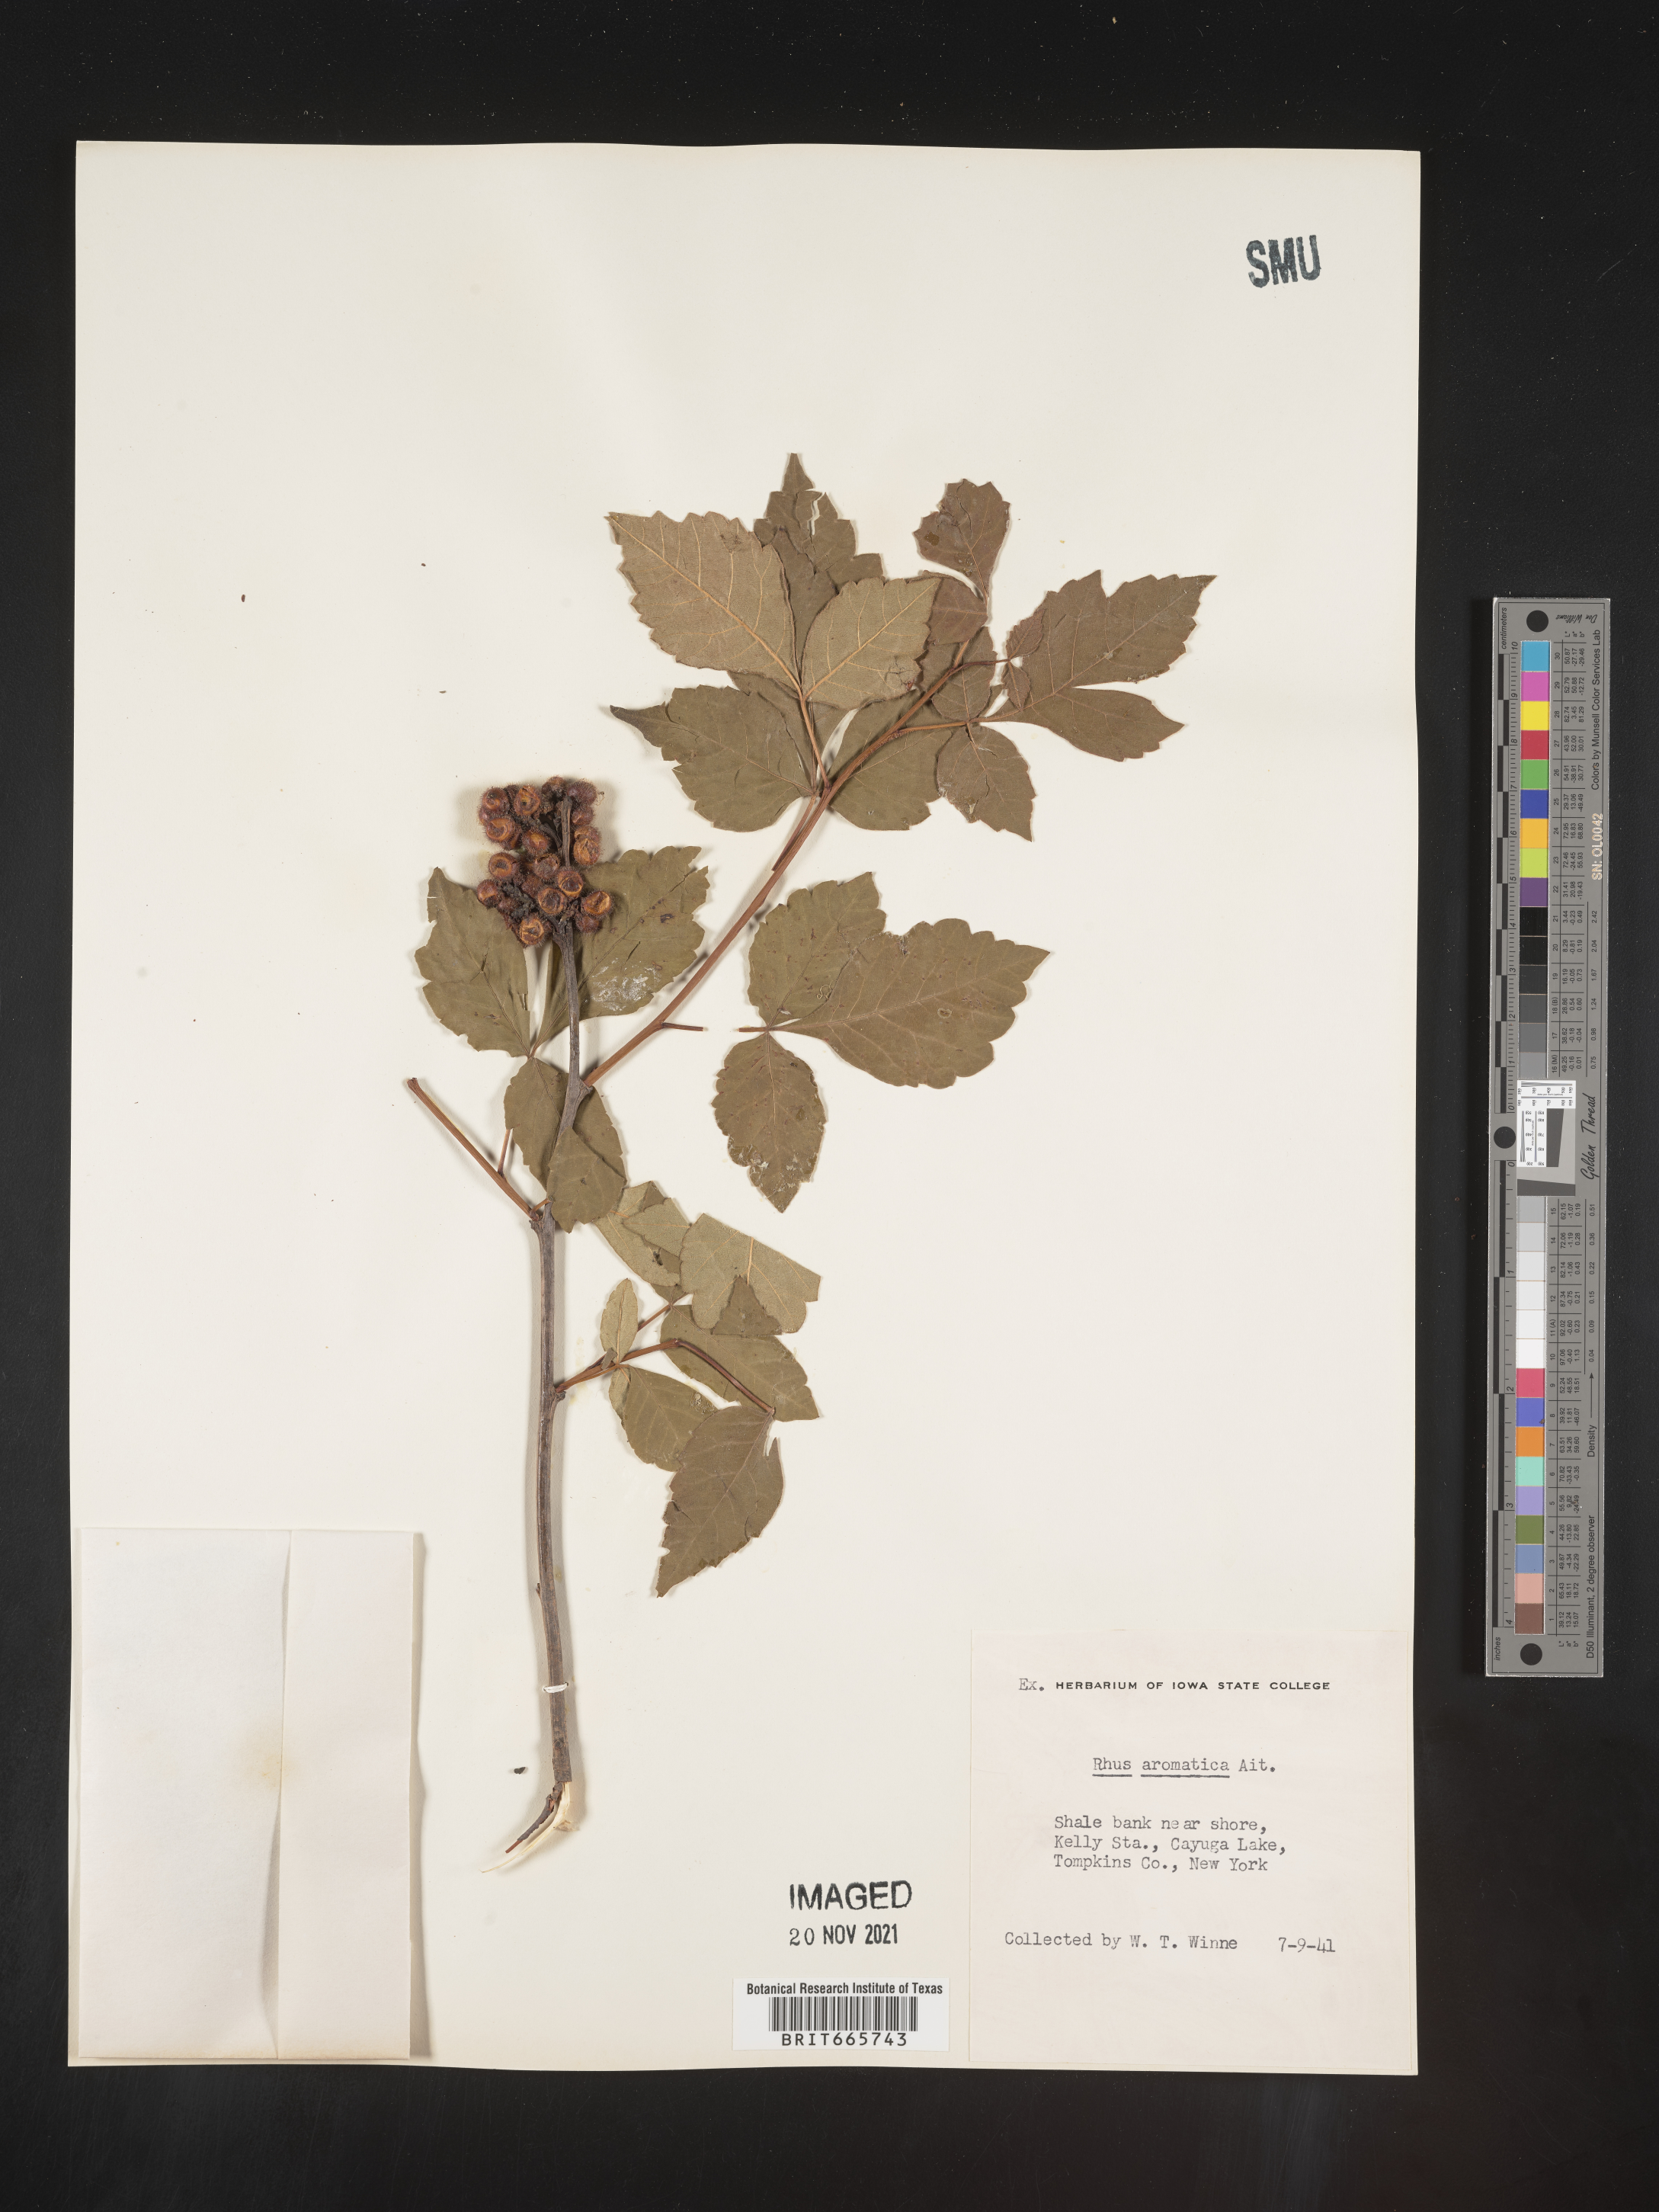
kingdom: Plantae
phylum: Tracheophyta
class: Magnoliopsida
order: Sapindales
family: Anacardiaceae
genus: Rhus
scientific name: Rhus aromatica
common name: Aromatic sumac
